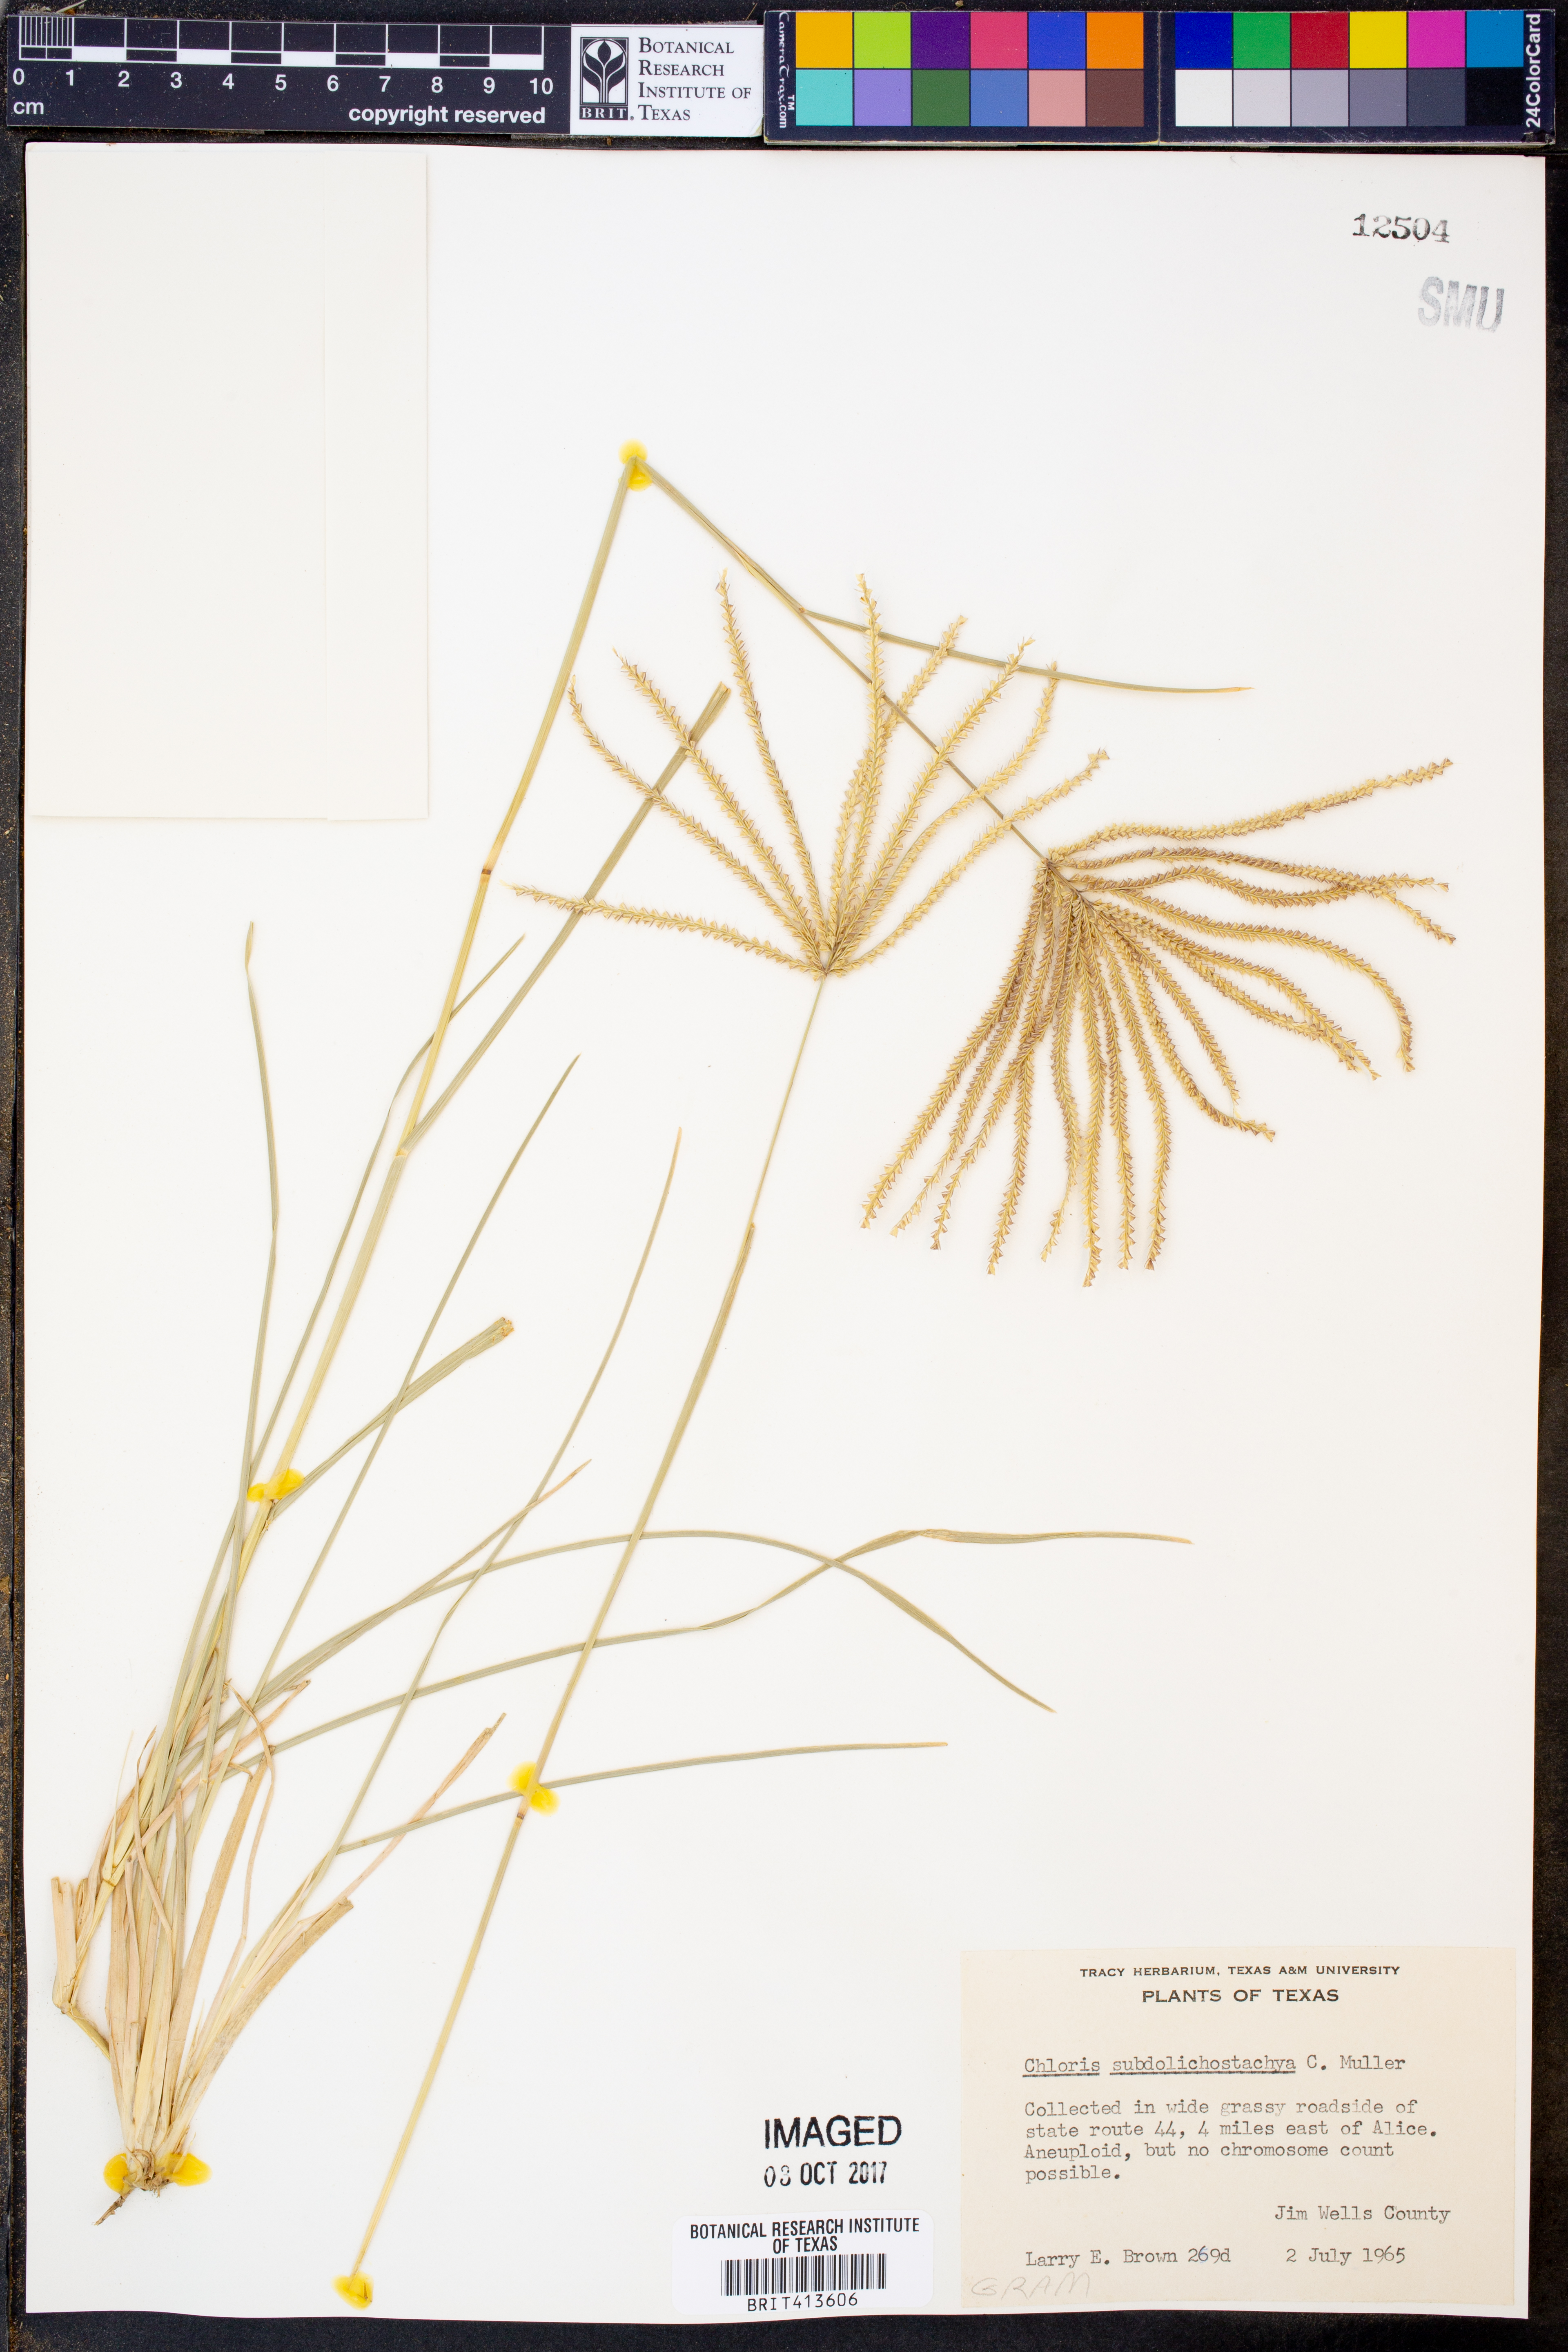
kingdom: Plantae
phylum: Tracheophyta
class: Liliopsida
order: Poales
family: Poaceae
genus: Chloris
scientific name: Chloris subdolichostachya
